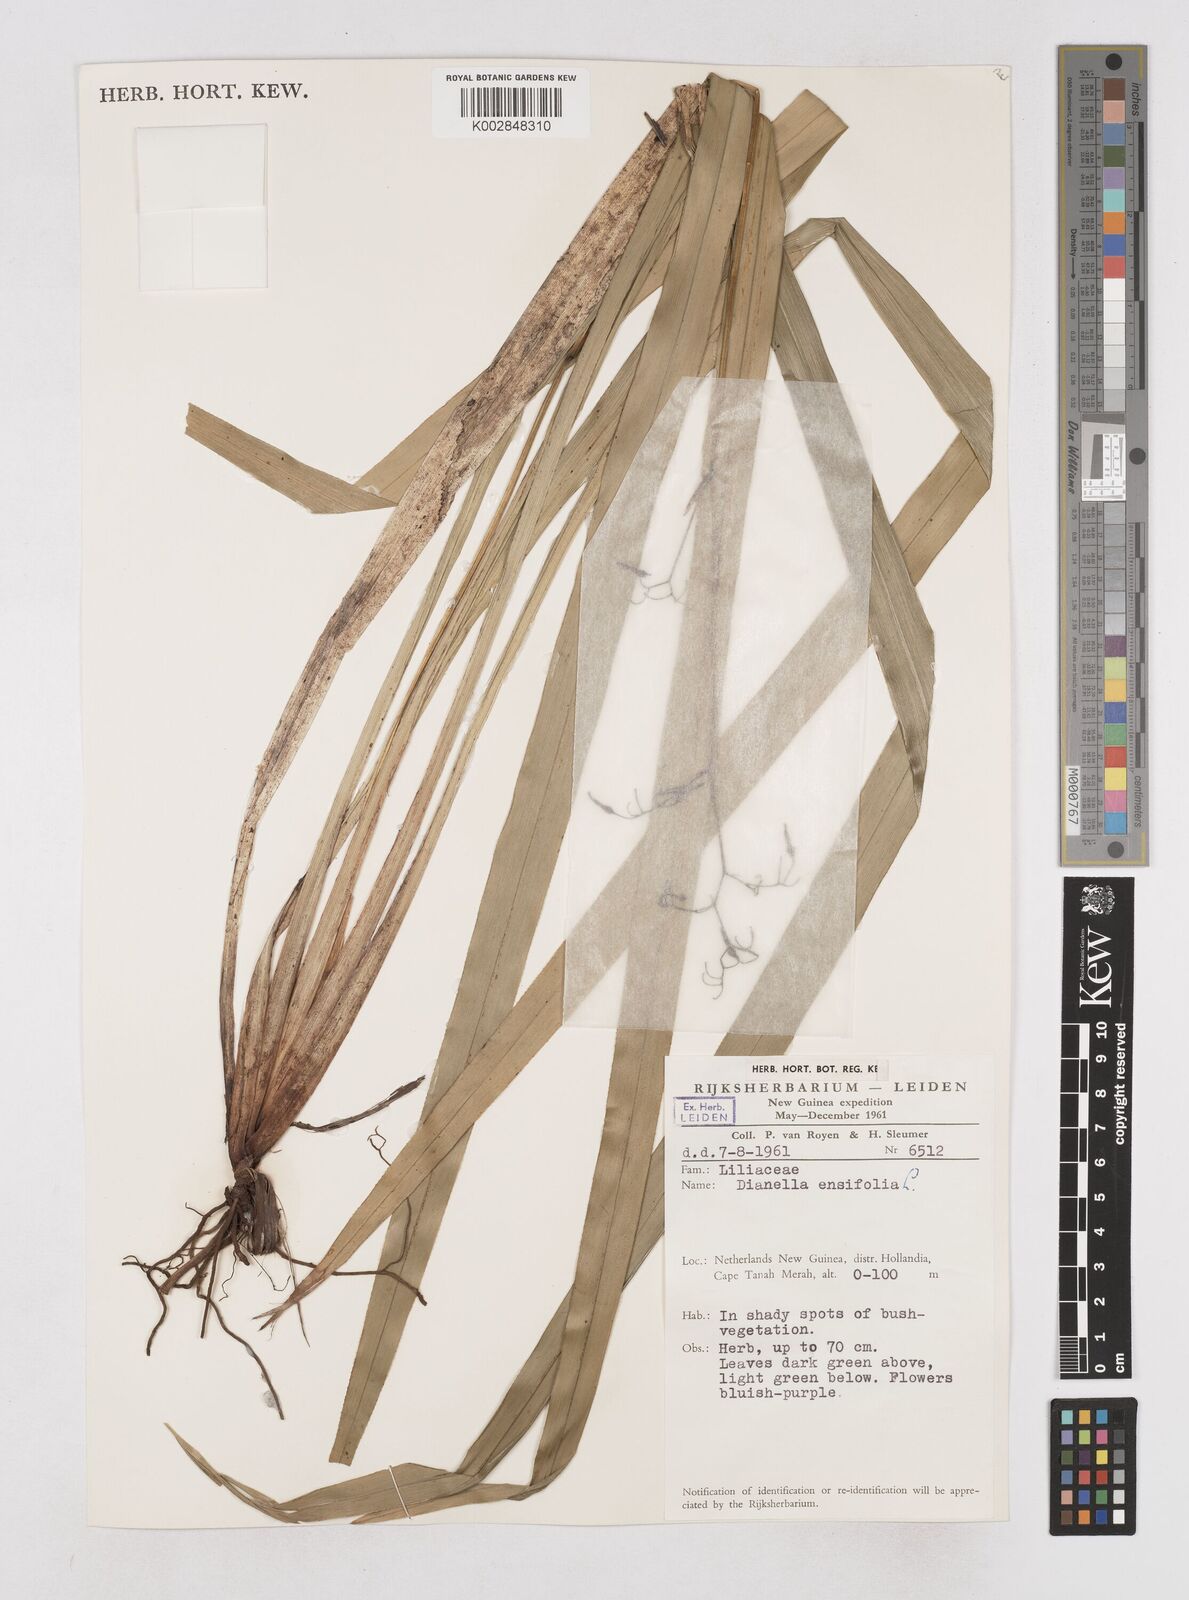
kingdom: Plantae
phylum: Tracheophyta
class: Liliopsida
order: Asparagales
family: Asphodelaceae
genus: Dianella
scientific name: Dianella ensifolia
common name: New zealand lilyplant
